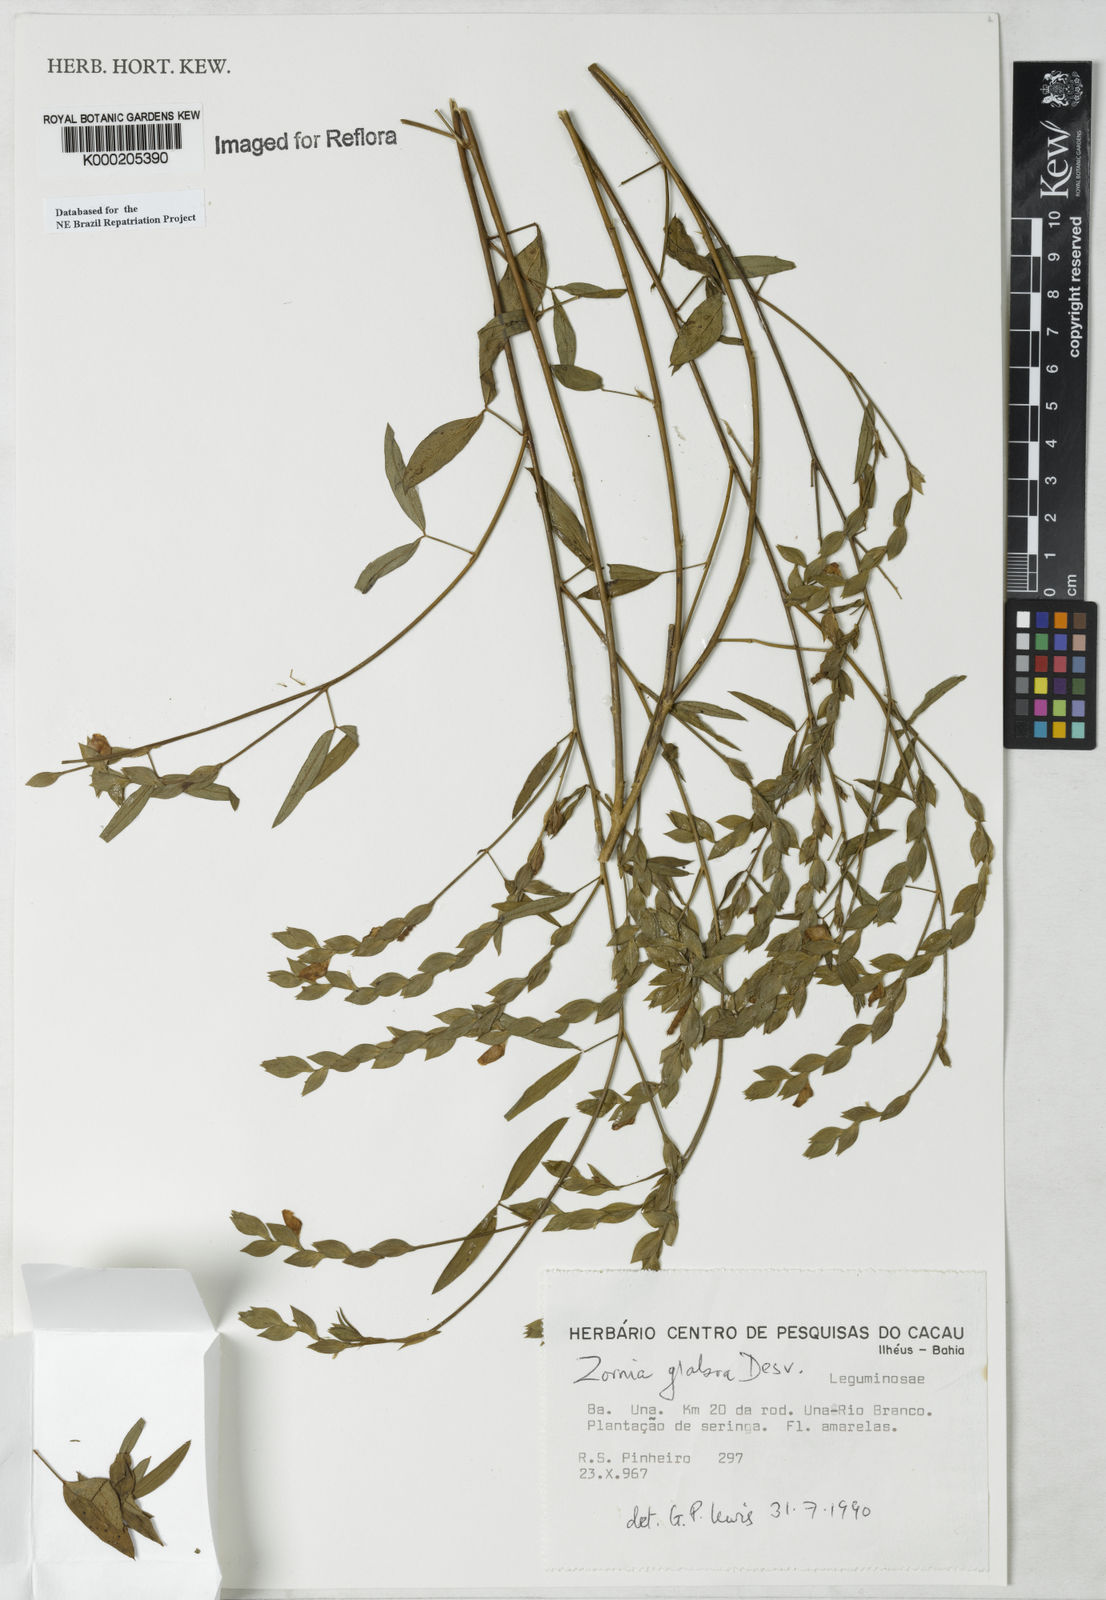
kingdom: Plantae
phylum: Tracheophyta
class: Magnoliopsida
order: Fabales
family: Fabaceae
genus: Zornia
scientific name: Zornia glabra
